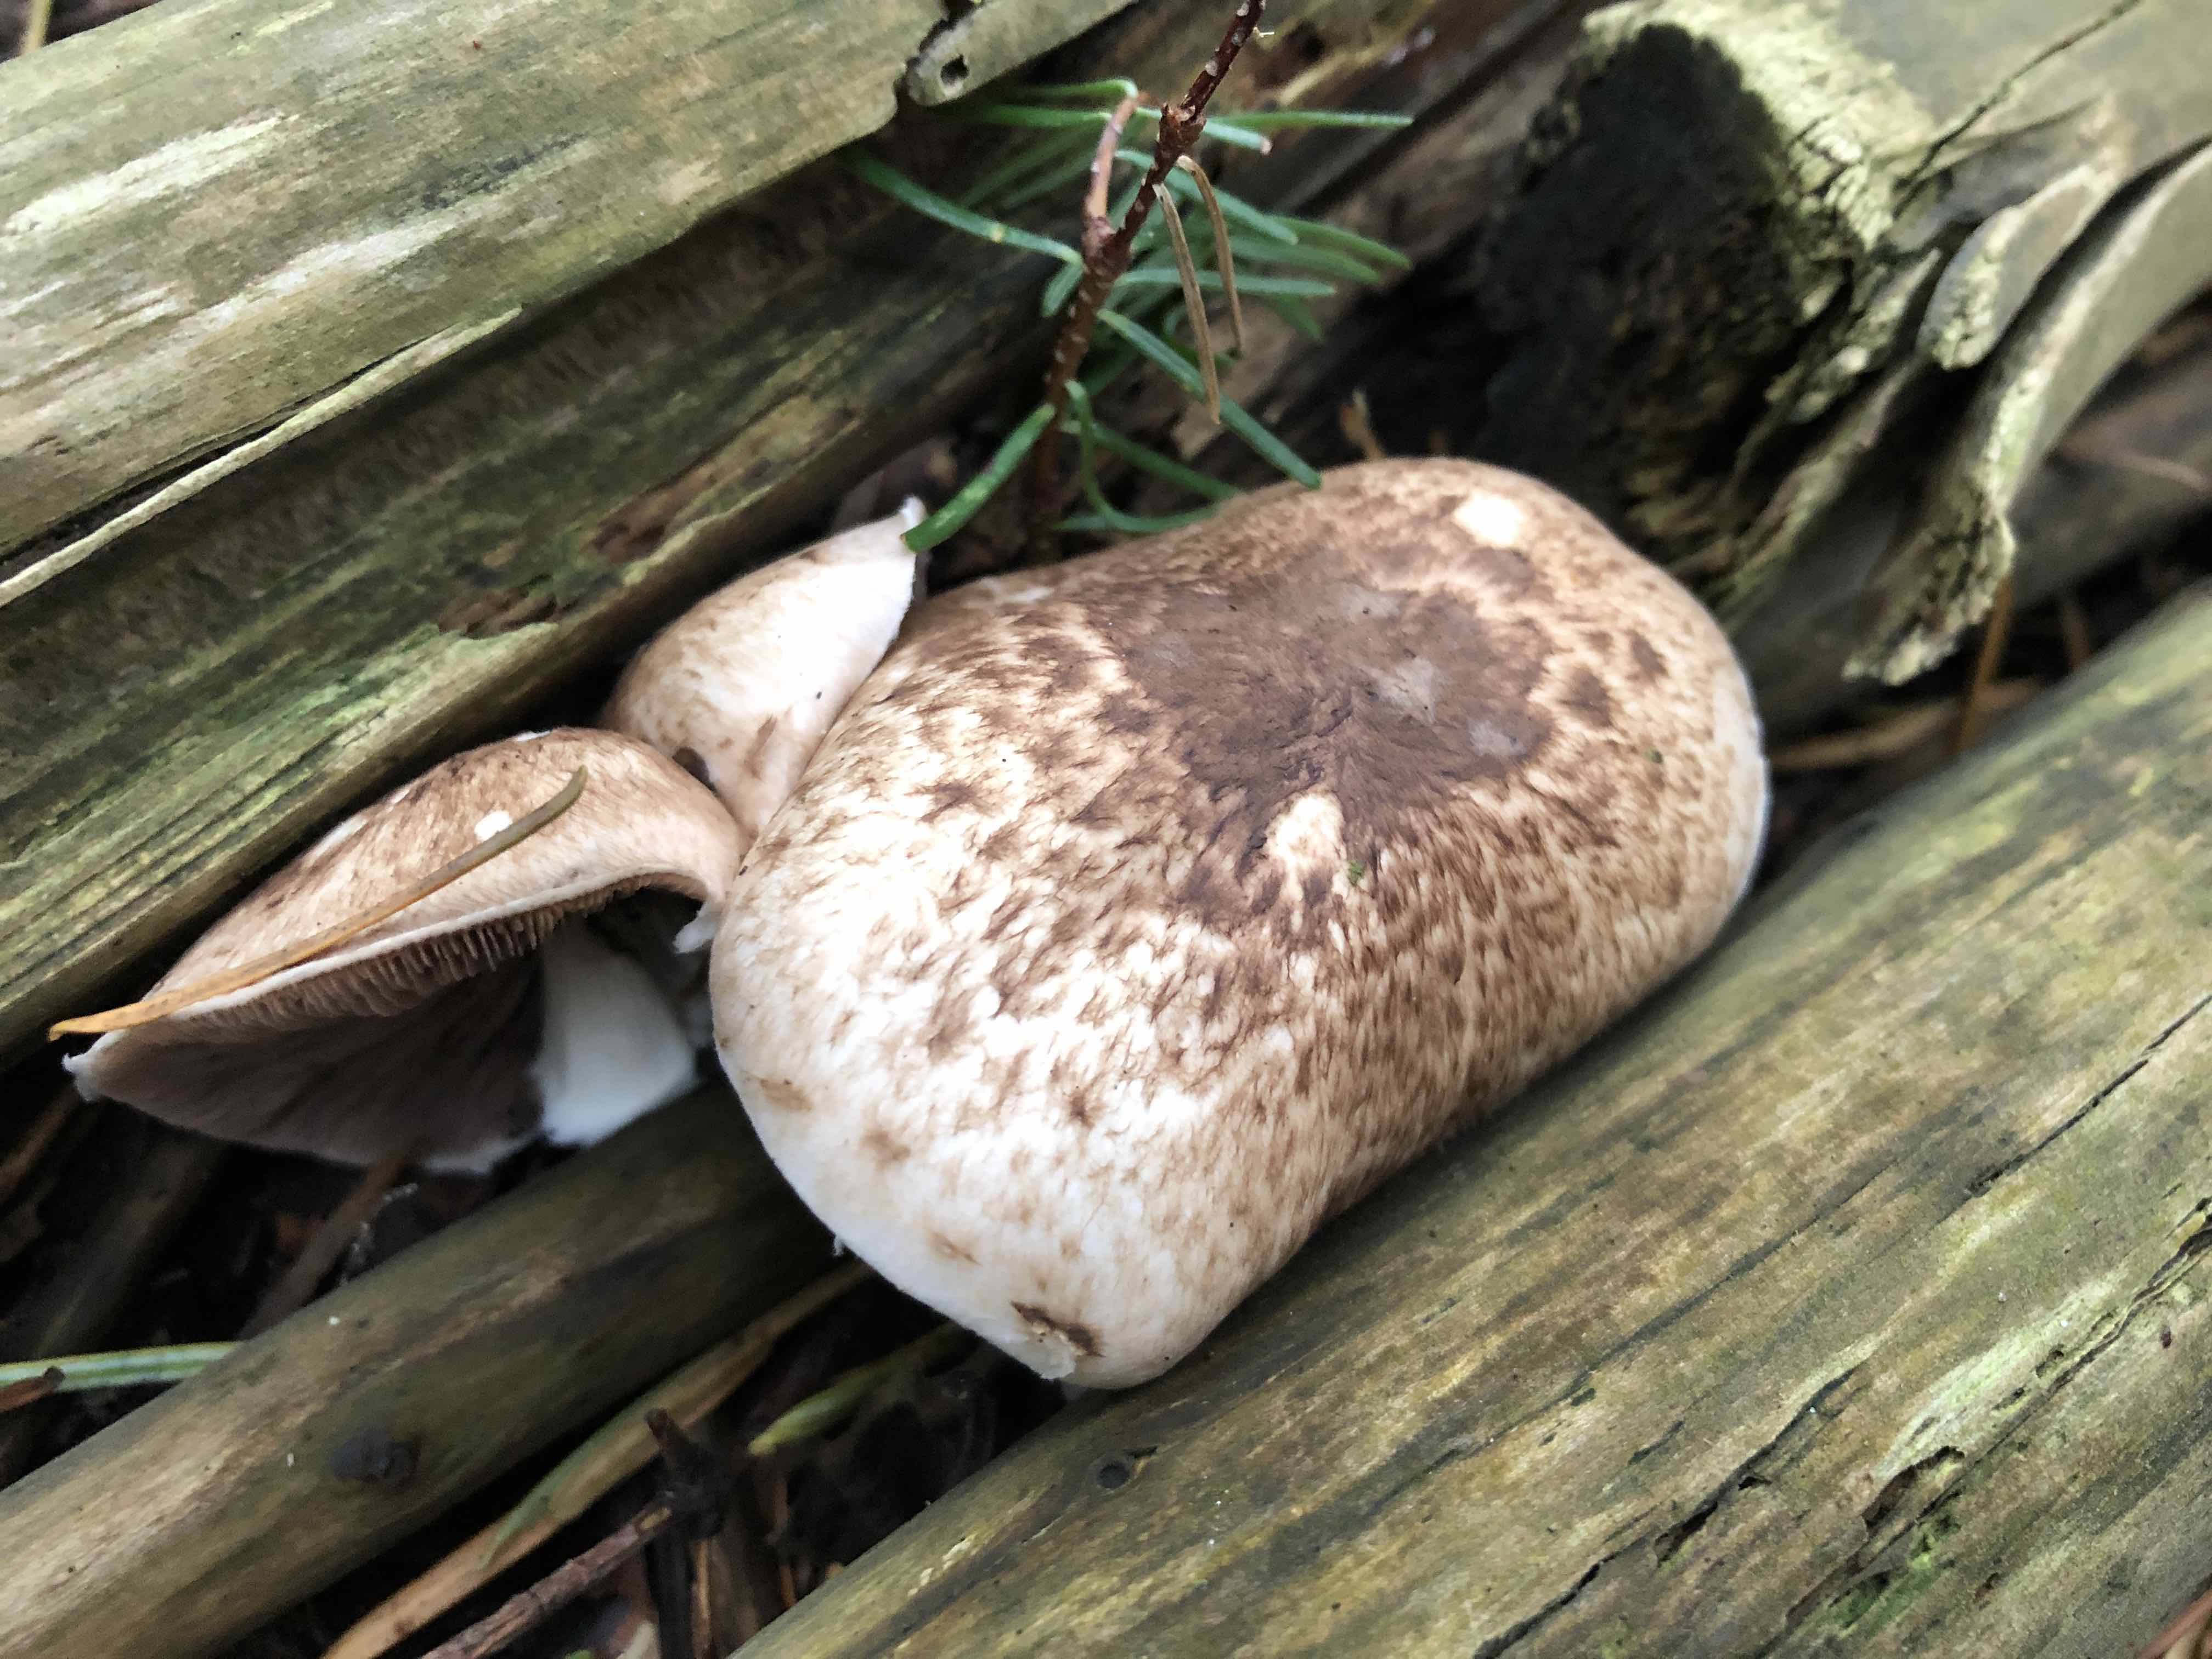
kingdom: Fungi
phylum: Basidiomycota
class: Agaricomycetes
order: Agaricales
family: Agaricaceae
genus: Agaricus
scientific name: Agaricus impudicus
